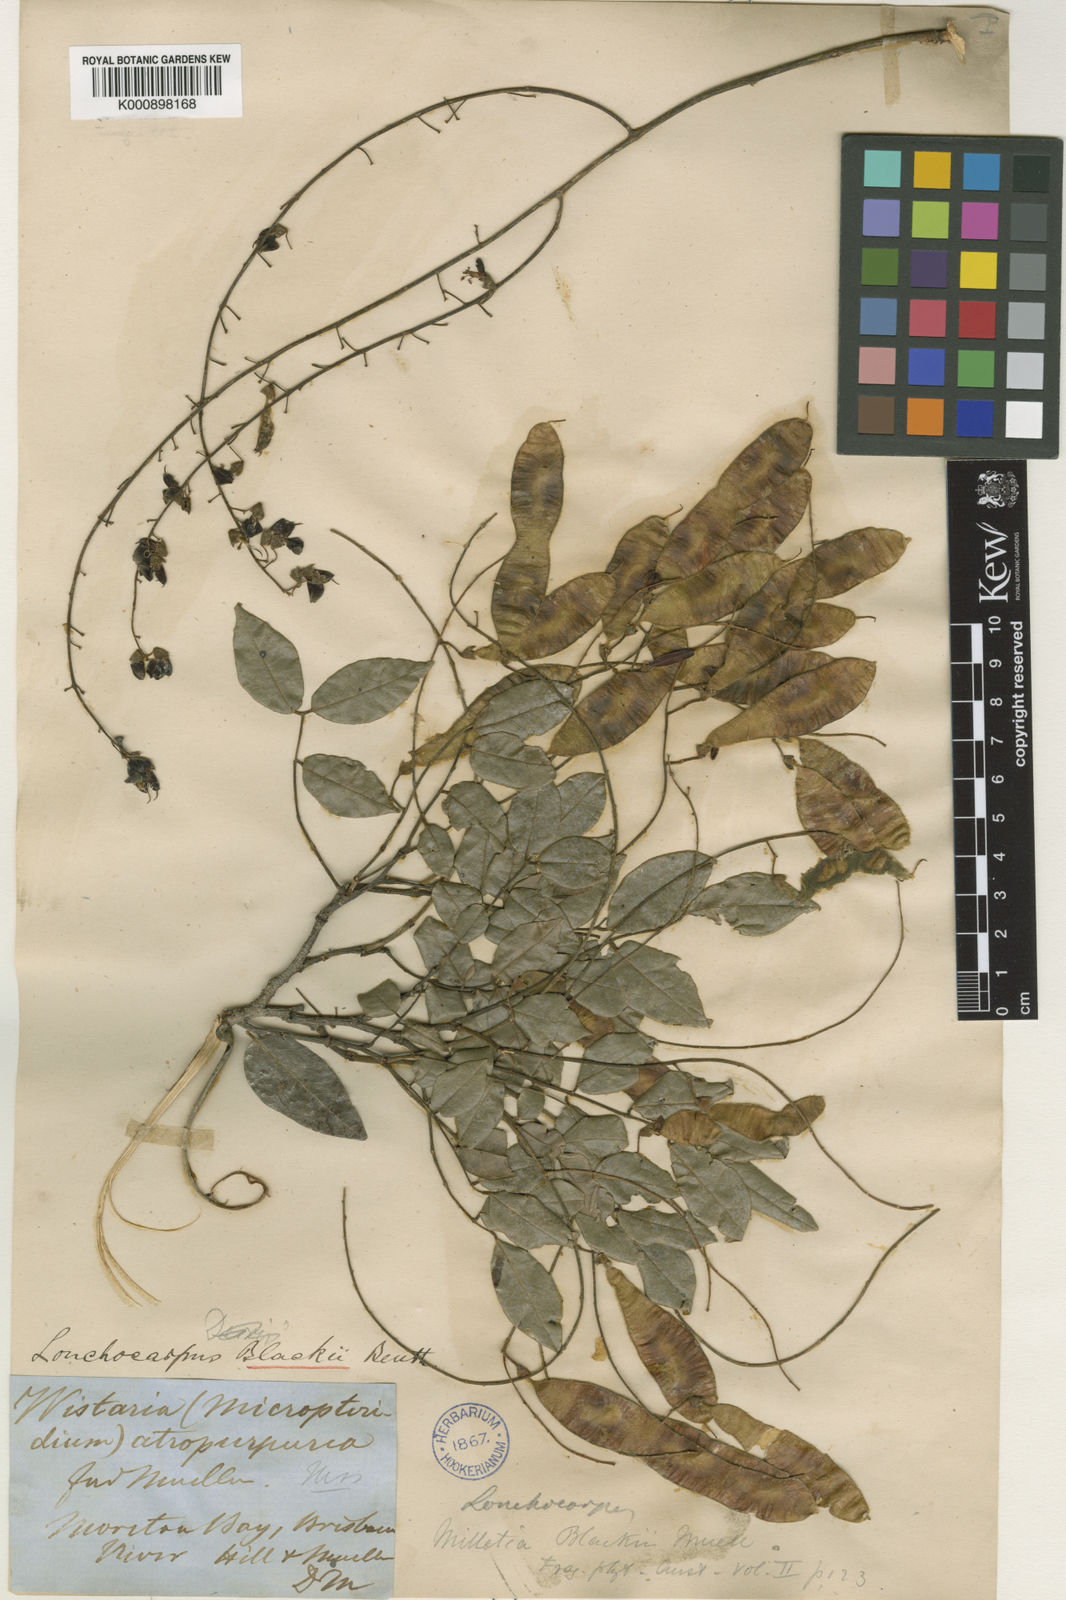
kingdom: Plantae
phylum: Tracheophyta
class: Magnoliopsida
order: Fabales
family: Fabaceae
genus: Austrosteenisia
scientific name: Austrosteenisia blackii
